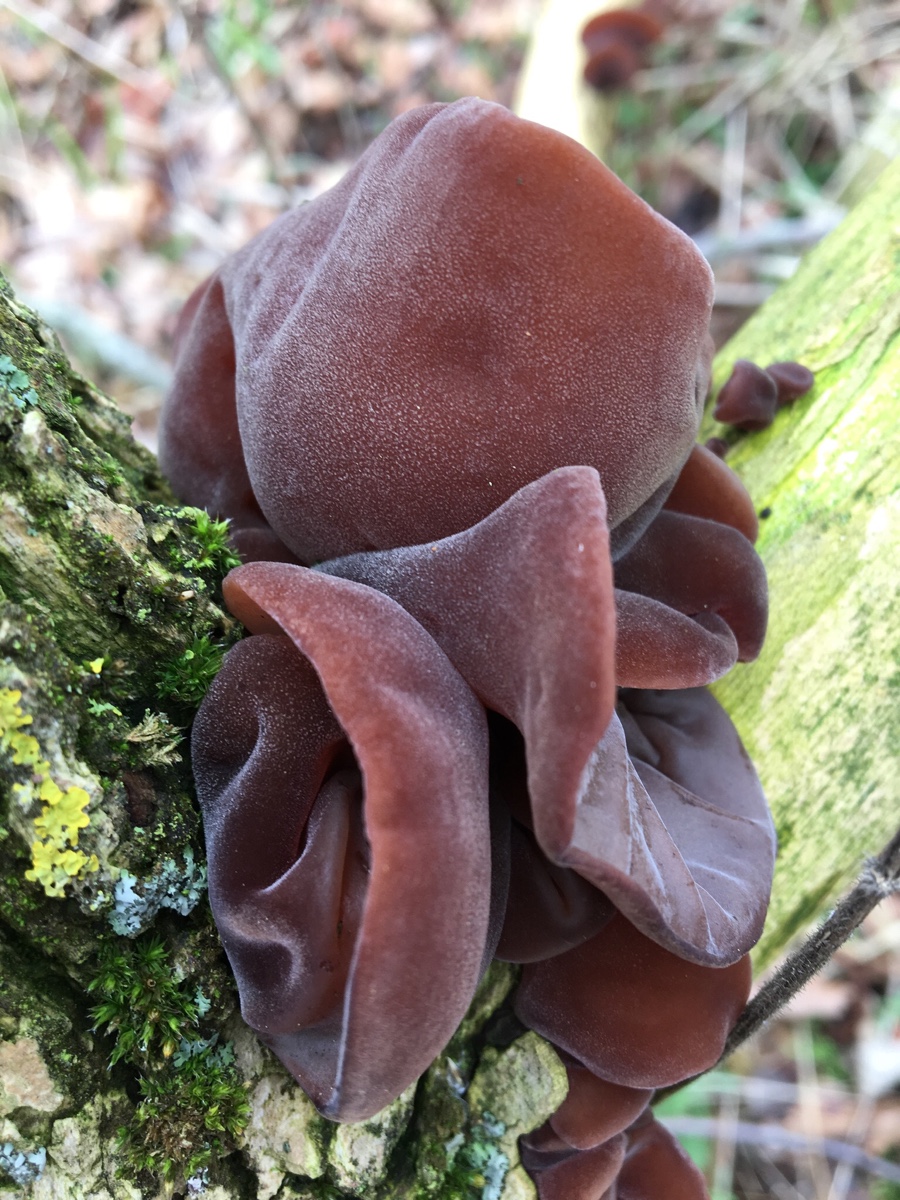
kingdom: Fungi
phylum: Basidiomycota
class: Agaricomycetes
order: Auriculariales
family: Auriculariaceae
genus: Auricularia
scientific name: Auricularia auricula-judae
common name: almindelig judasøre
